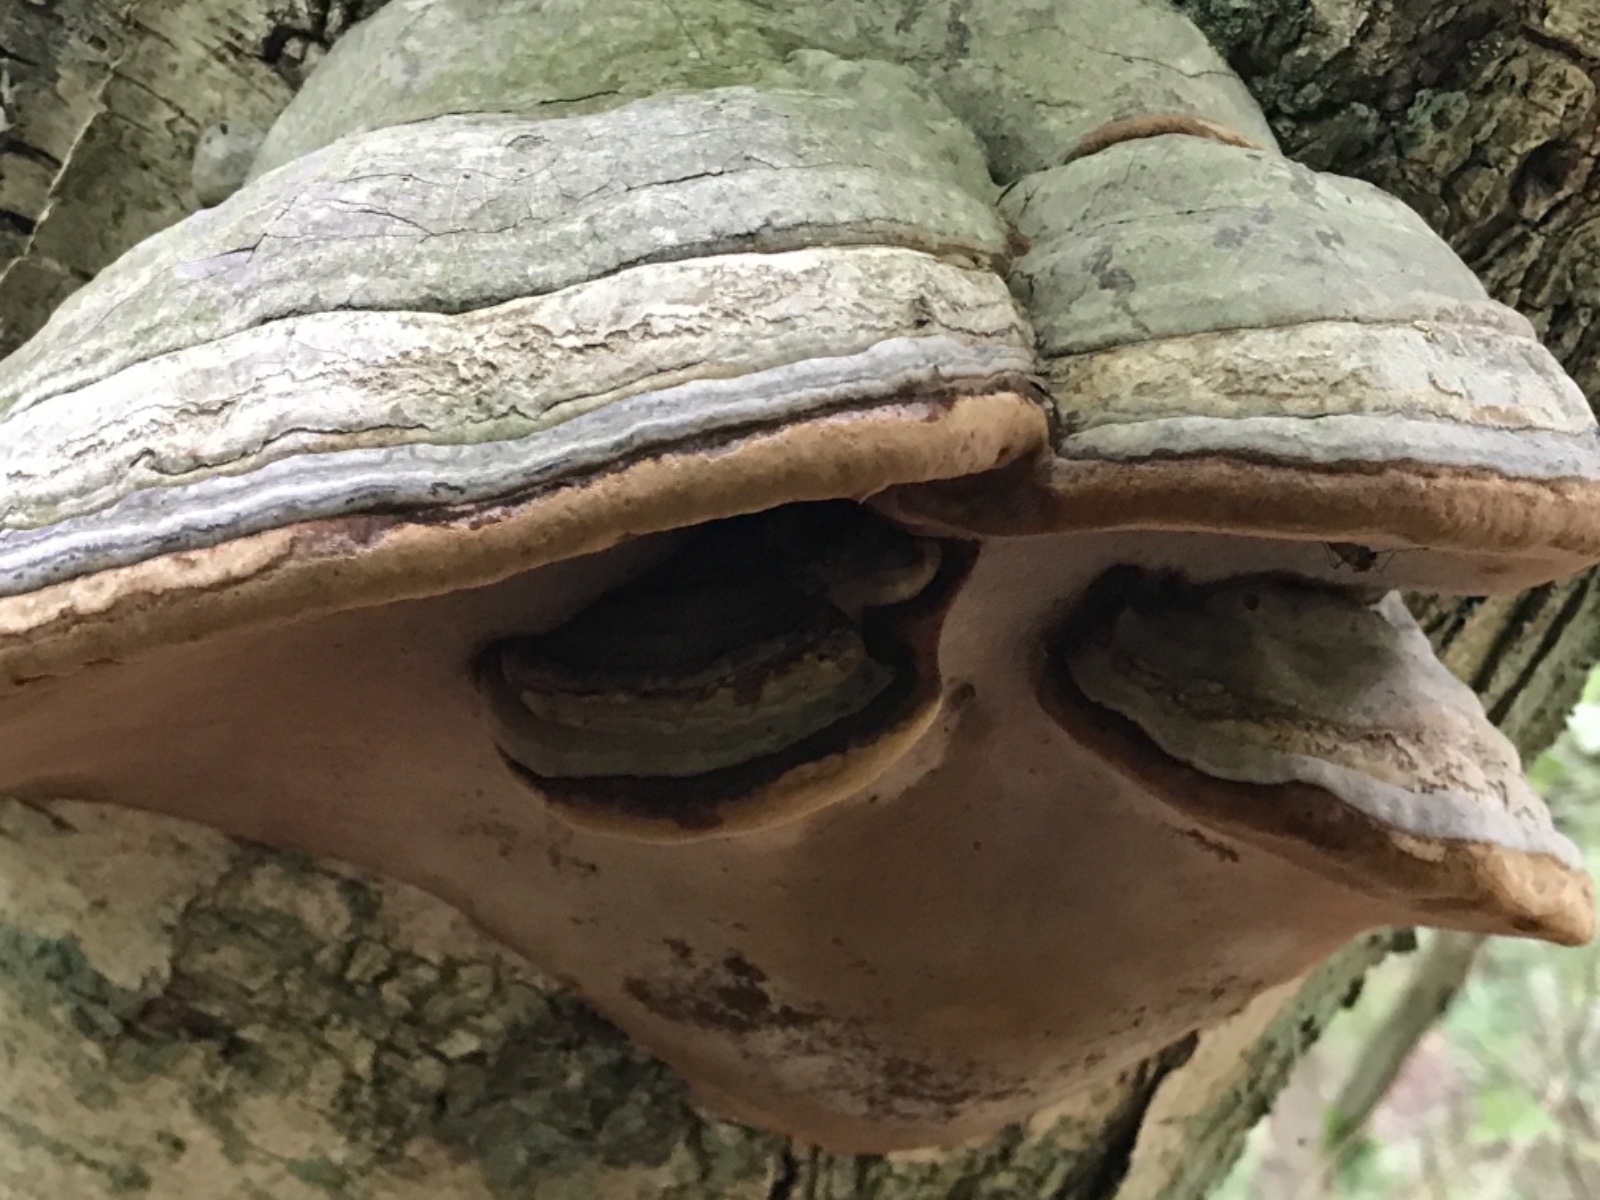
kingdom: Fungi
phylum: Basidiomycota
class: Agaricomycetes
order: Polyporales
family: Polyporaceae
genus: Fomes
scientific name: Fomes fomentarius
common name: tøndersvamp
